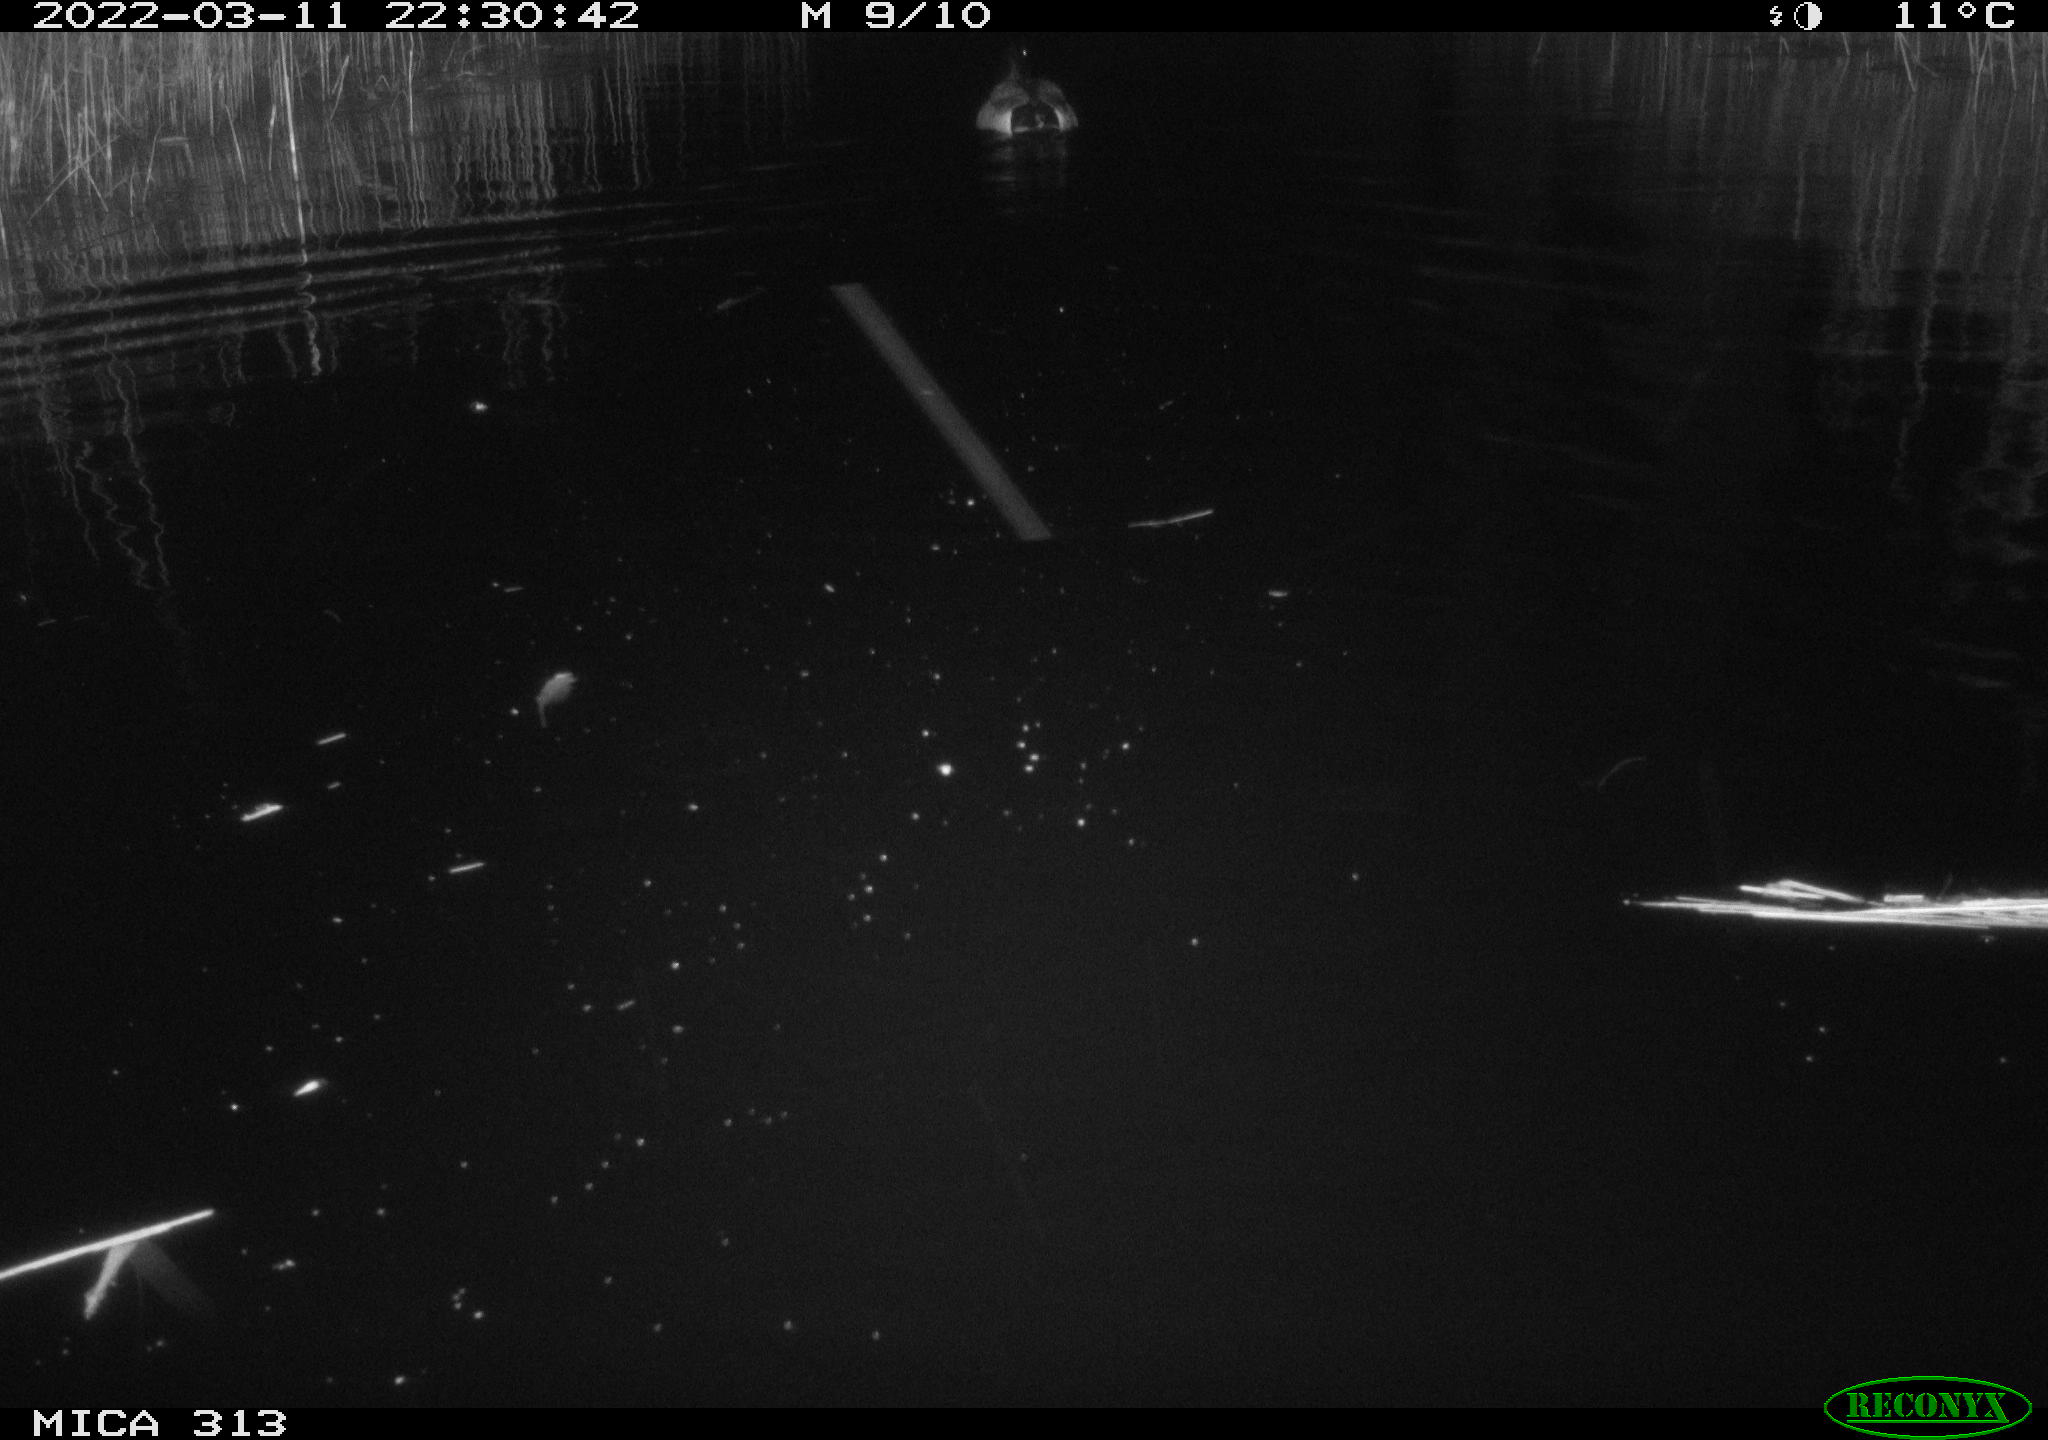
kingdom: Animalia
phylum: Chordata
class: Aves
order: Anseriformes
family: Anatidae
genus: Anas
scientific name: Anas platyrhynchos
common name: Mallard
